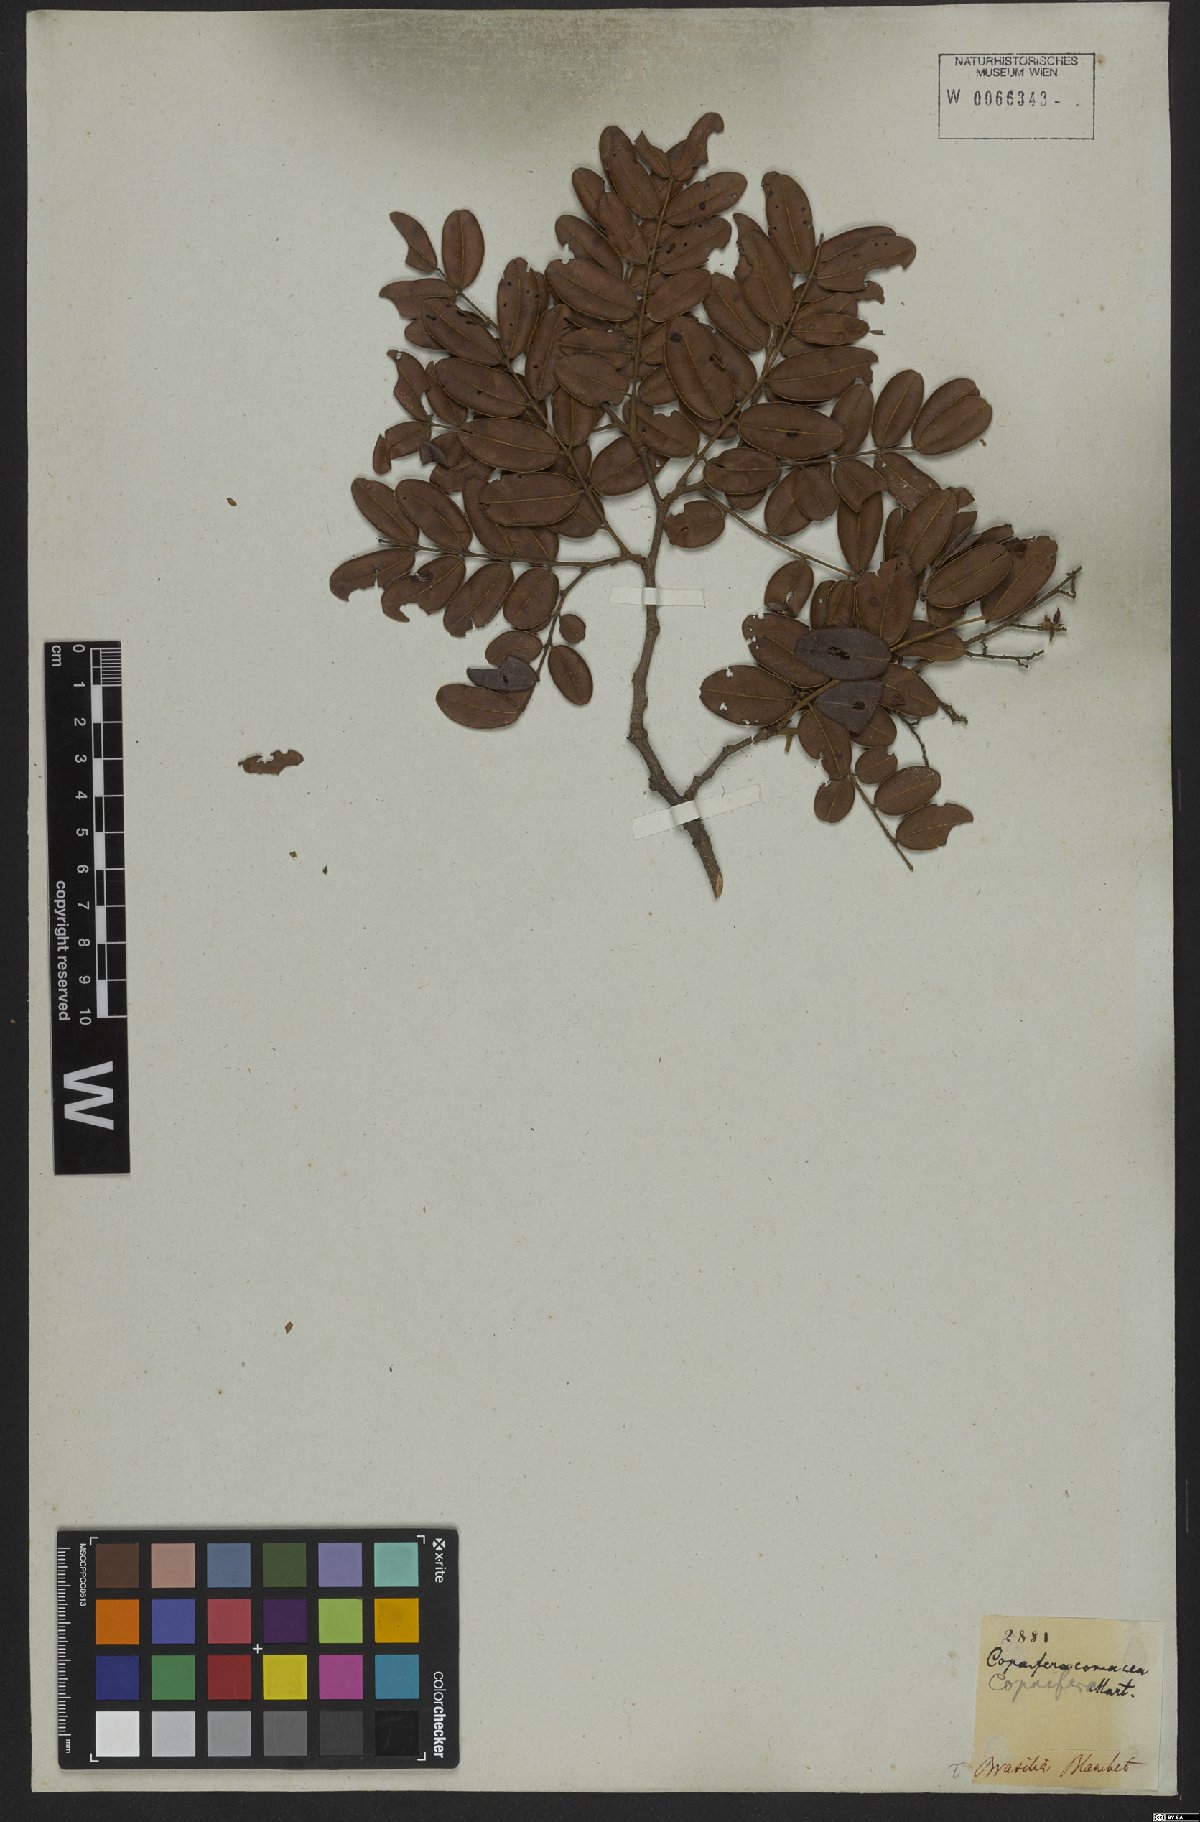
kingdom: Plantae
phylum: Tracheophyta
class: Magnoliopsida
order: Fabales
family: Fabaceae
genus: Copaifera
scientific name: Copaifera coriacea
